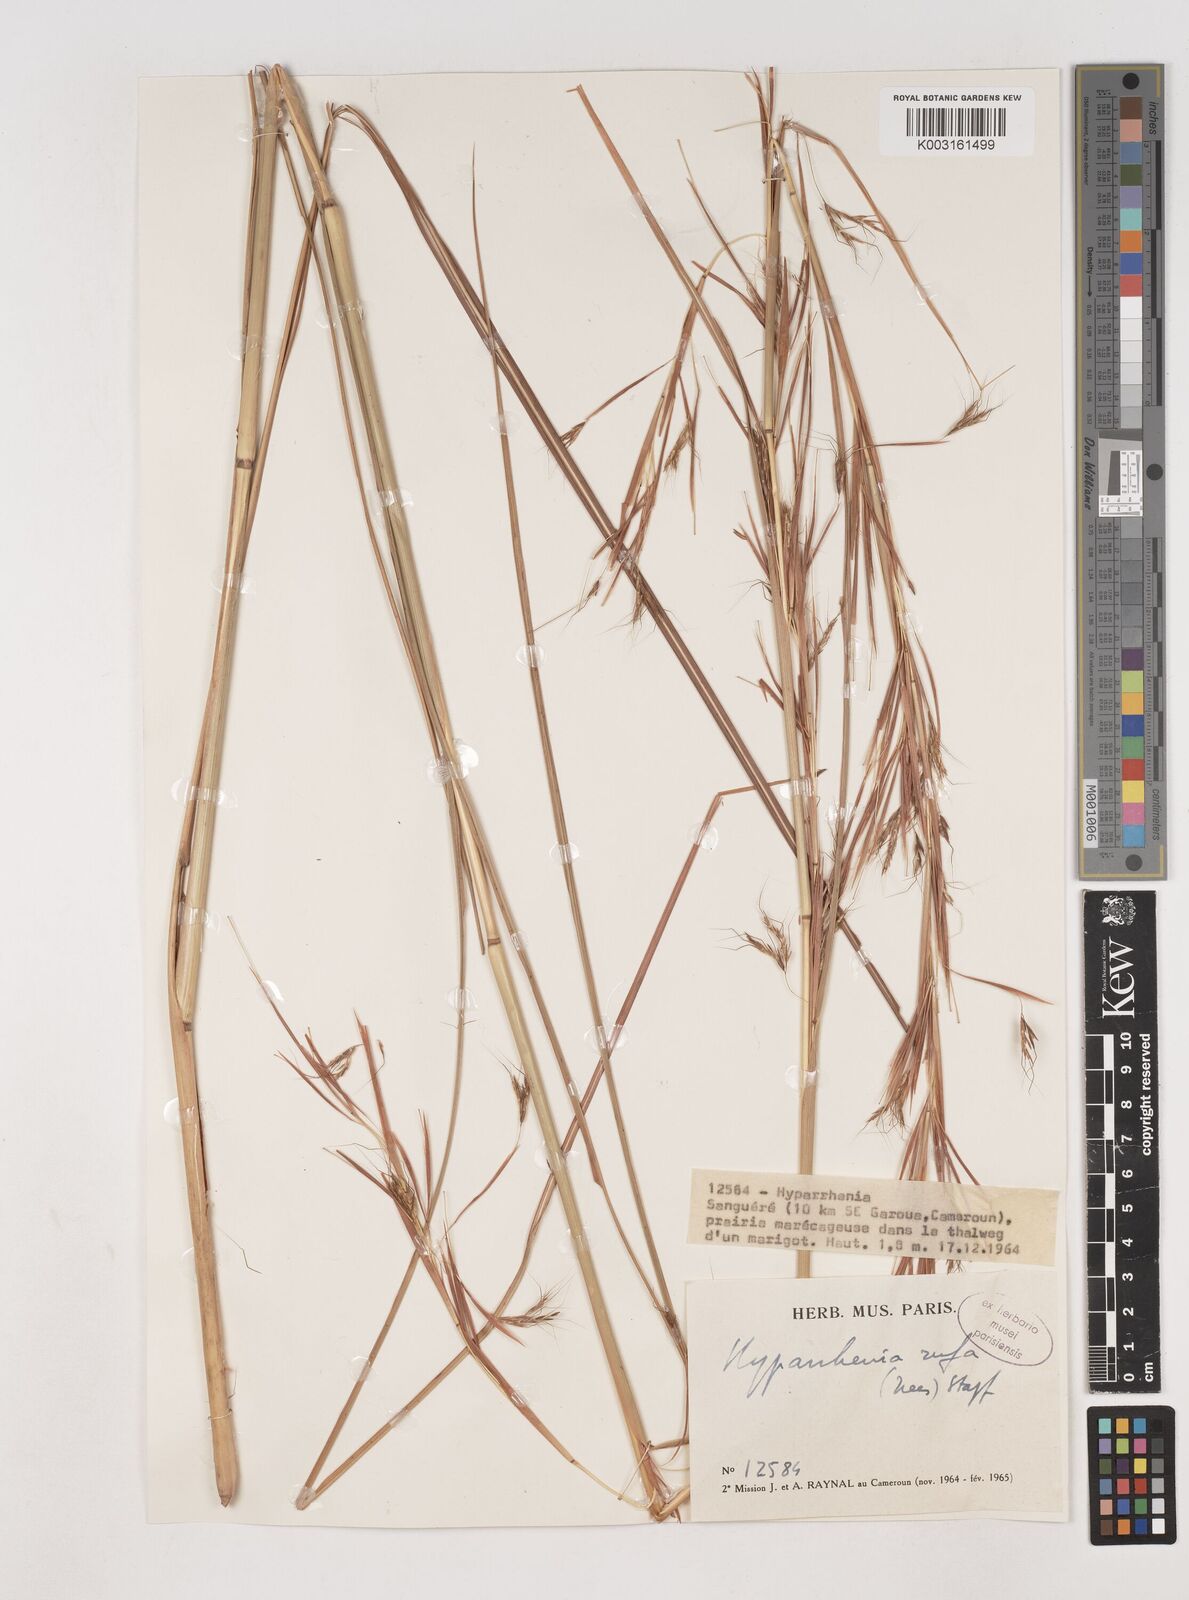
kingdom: Plantae
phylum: Tracheophyta
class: Liliopsida
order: Poales
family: Poaceae
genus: Hyparrhenia
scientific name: Hyparrhenia rufa
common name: Jaraguagrass
